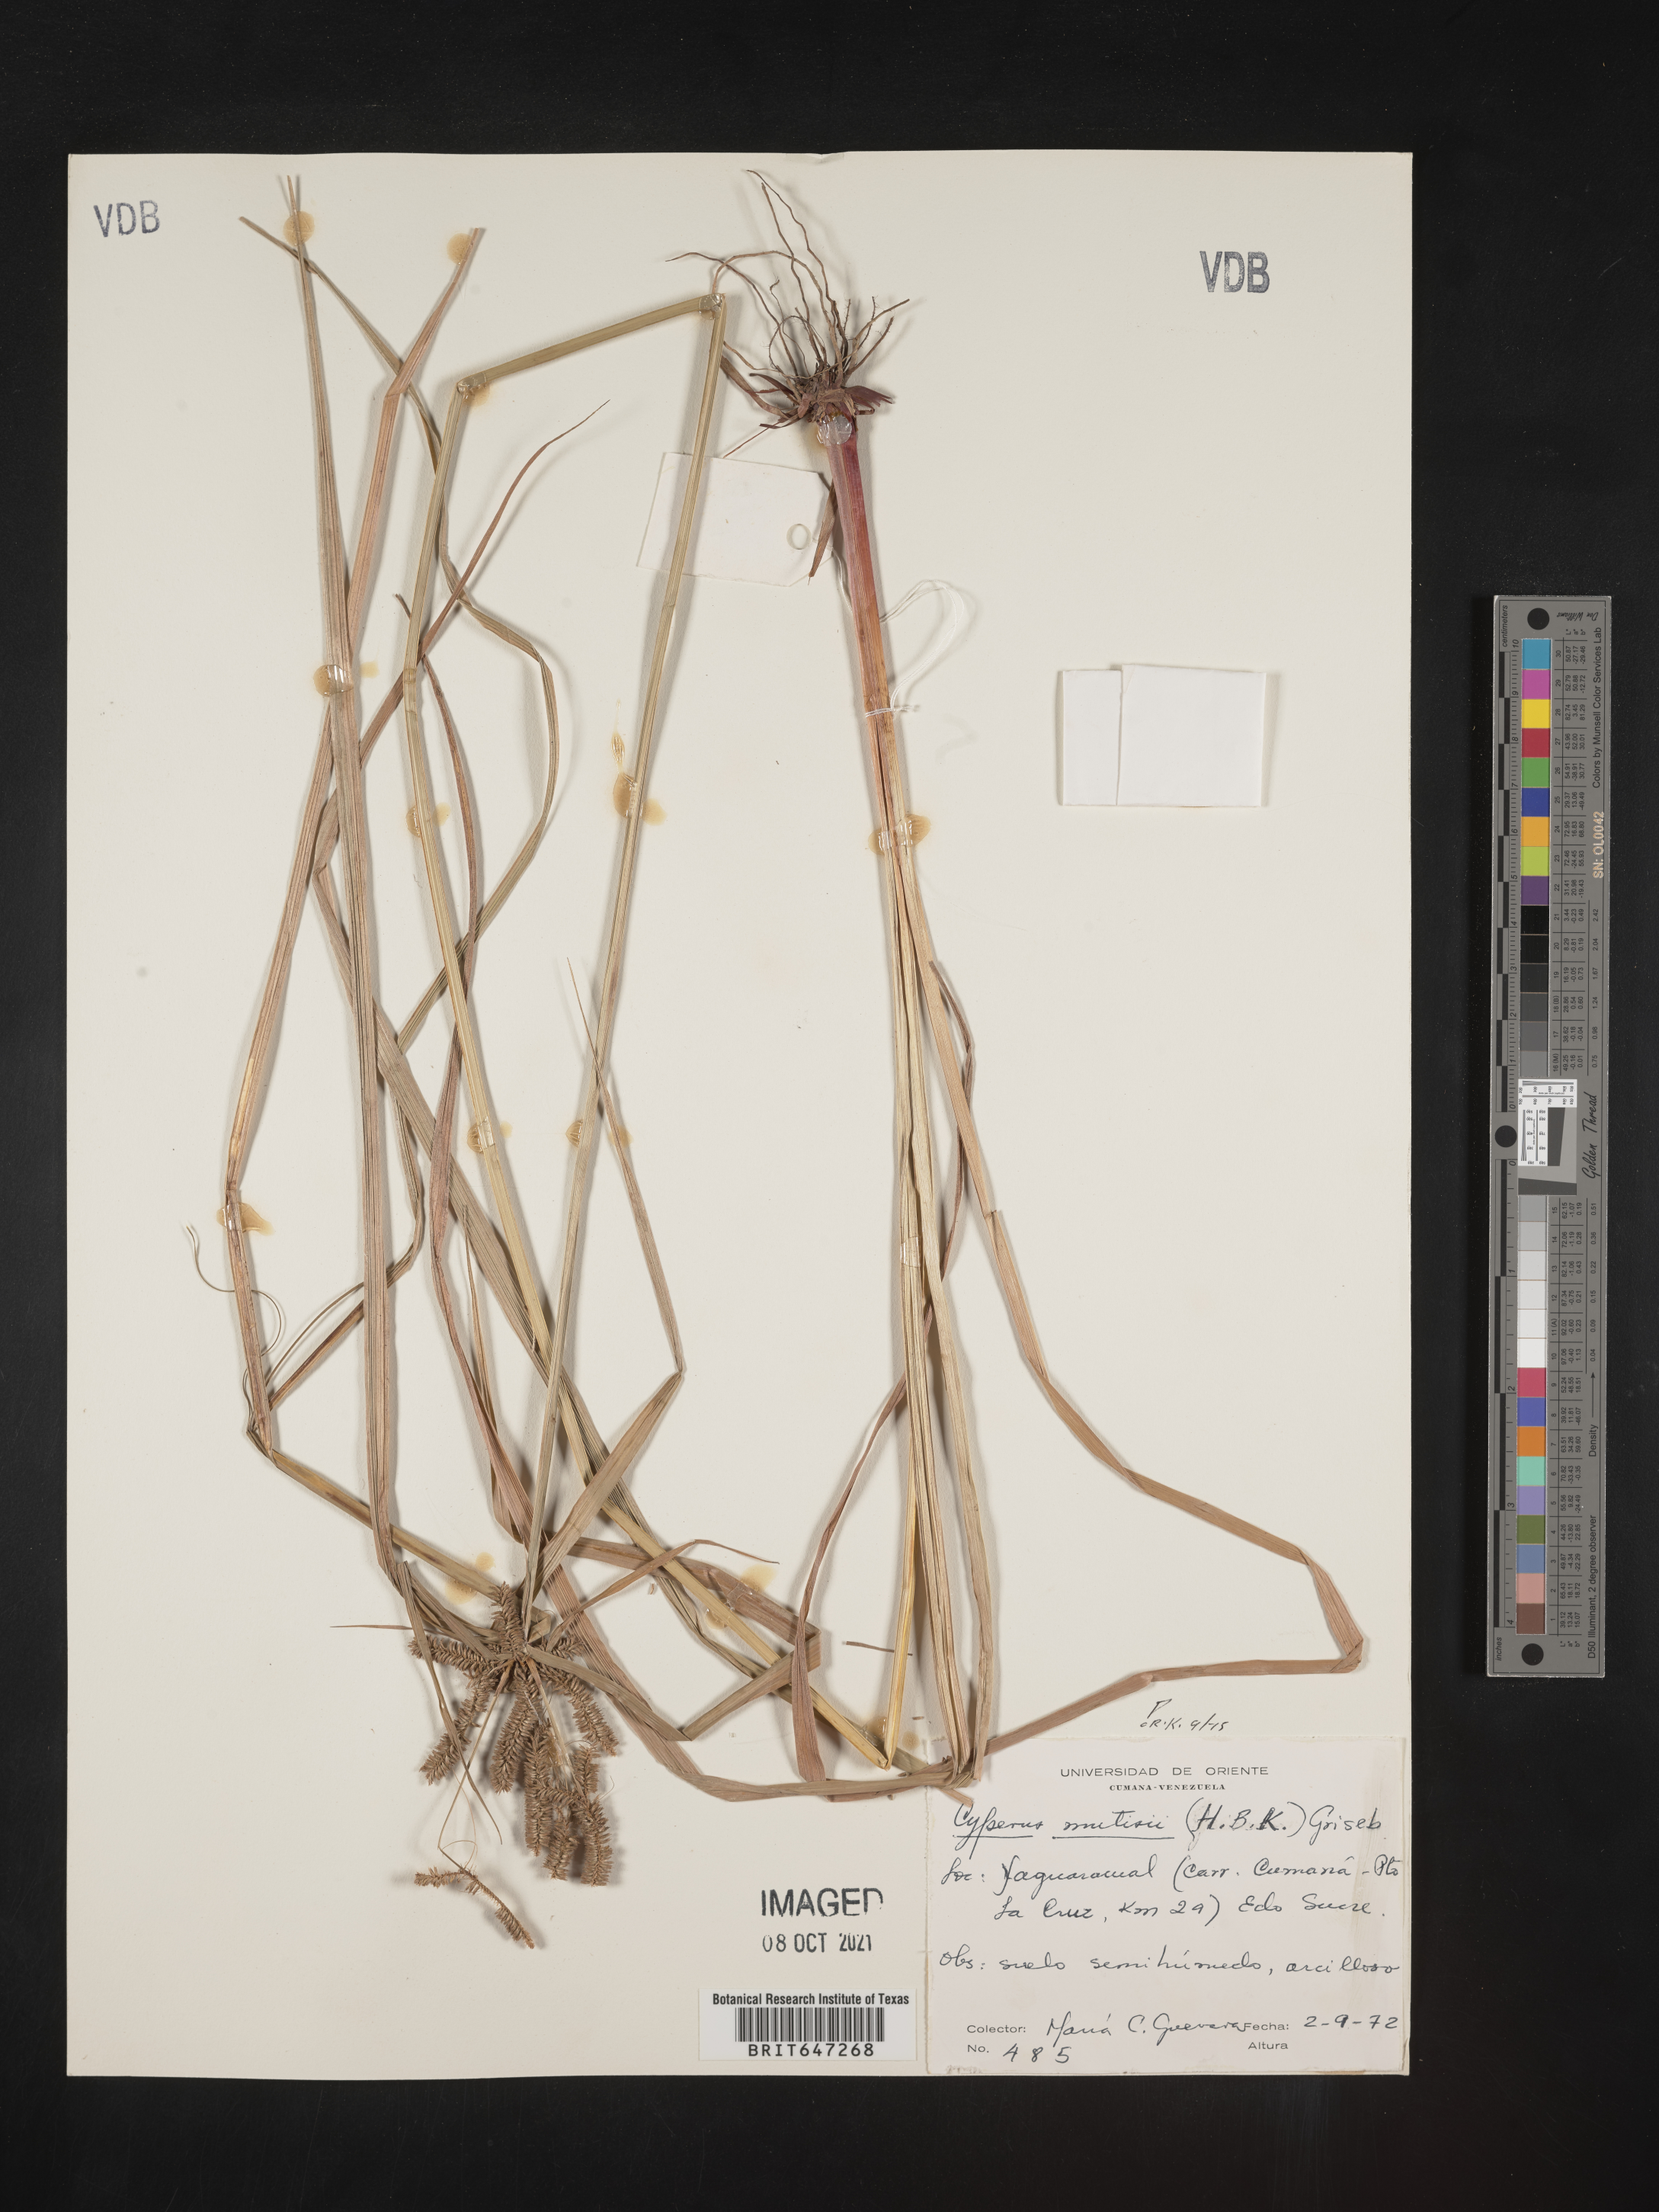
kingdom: Plantae
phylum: Tracheophyta
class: Liliopsida
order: Poales
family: Cyperaceae
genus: Cyperus
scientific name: Cyperus mutisii
